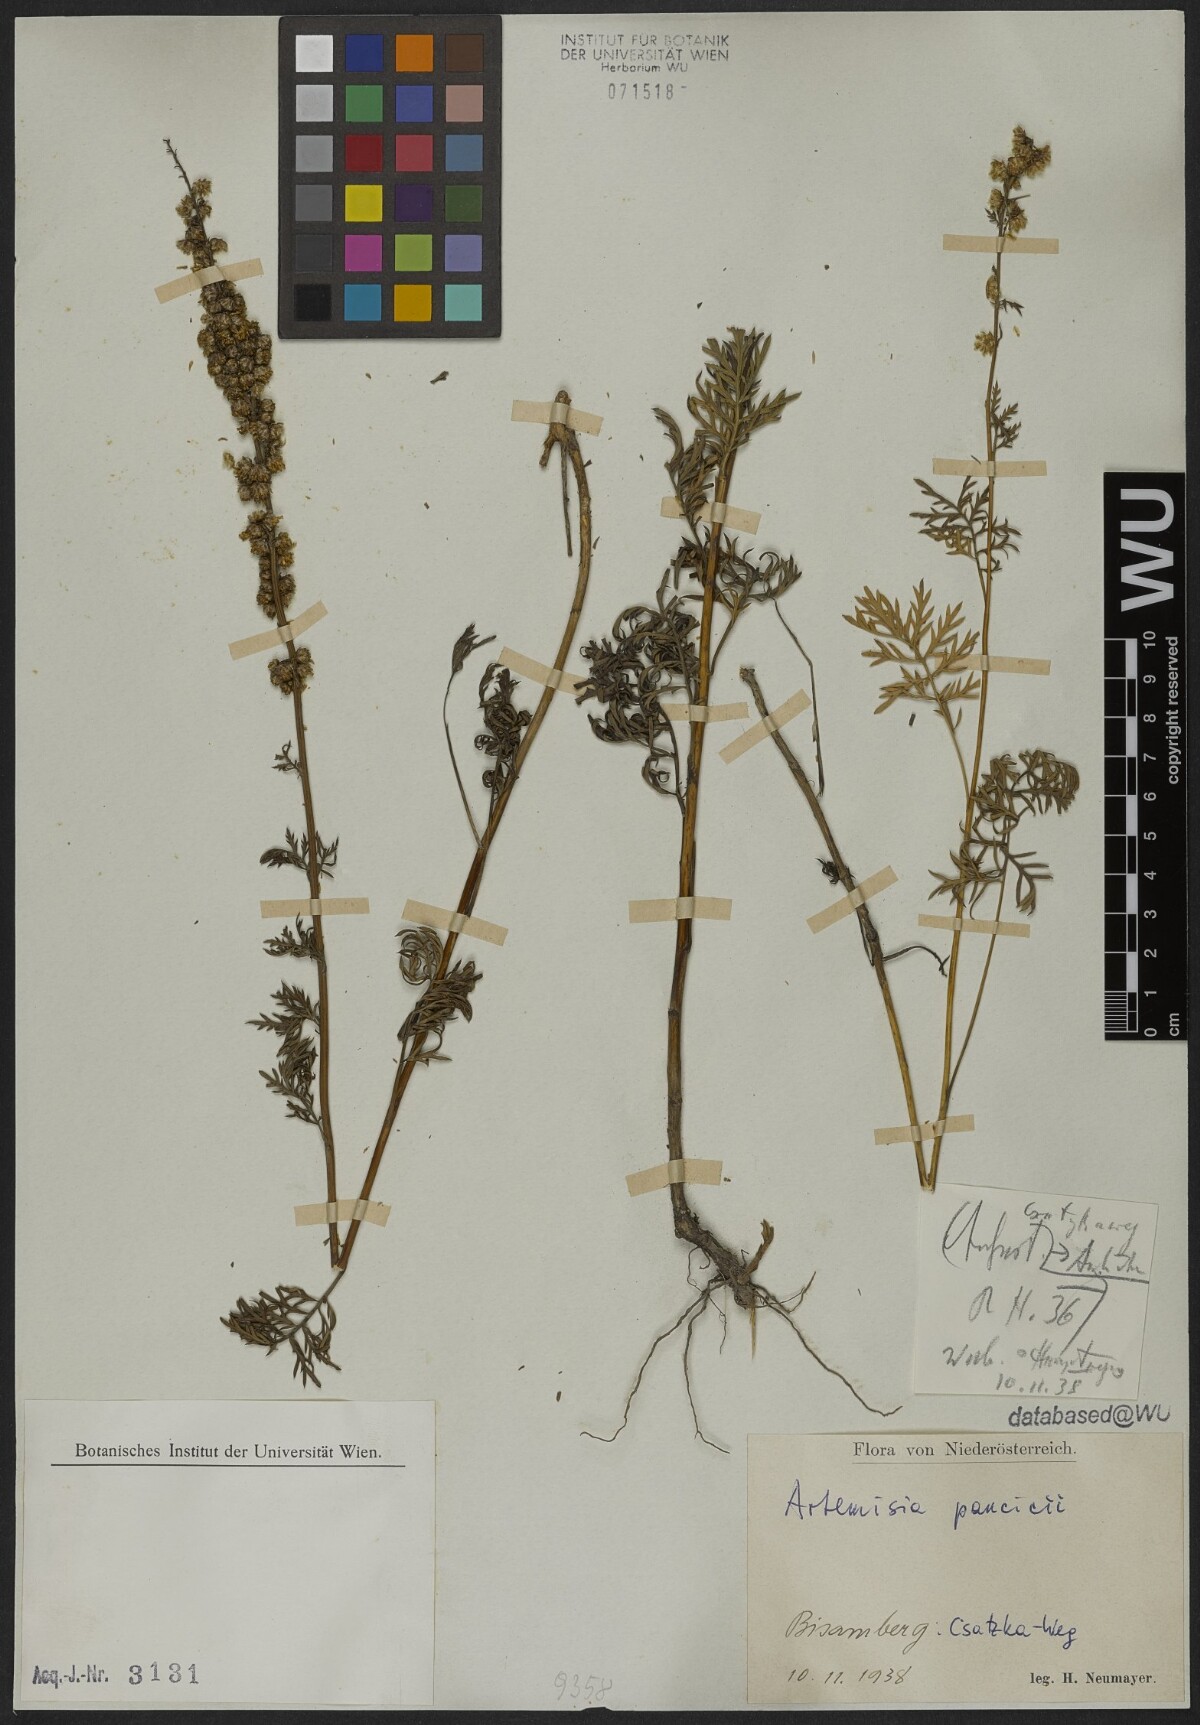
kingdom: Plantae
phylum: Tracheophyta
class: Magnoliopsida
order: Asterales
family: Asteraceae
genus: Artemisia
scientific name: Artemisia pancicii
